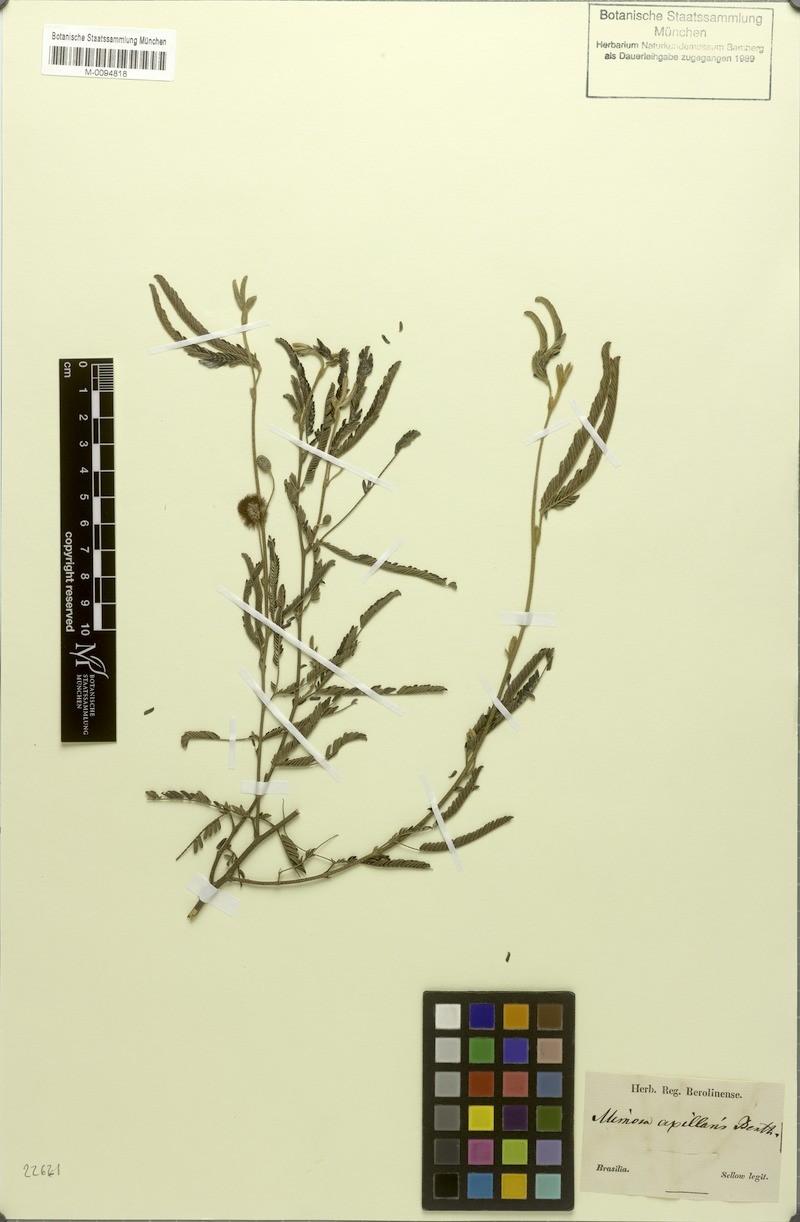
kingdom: Plantae
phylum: Tracheophyta
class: Magnoliopsida
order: Fabales
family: Fabaceae
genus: Mimosa
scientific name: Mimosa axillaris
